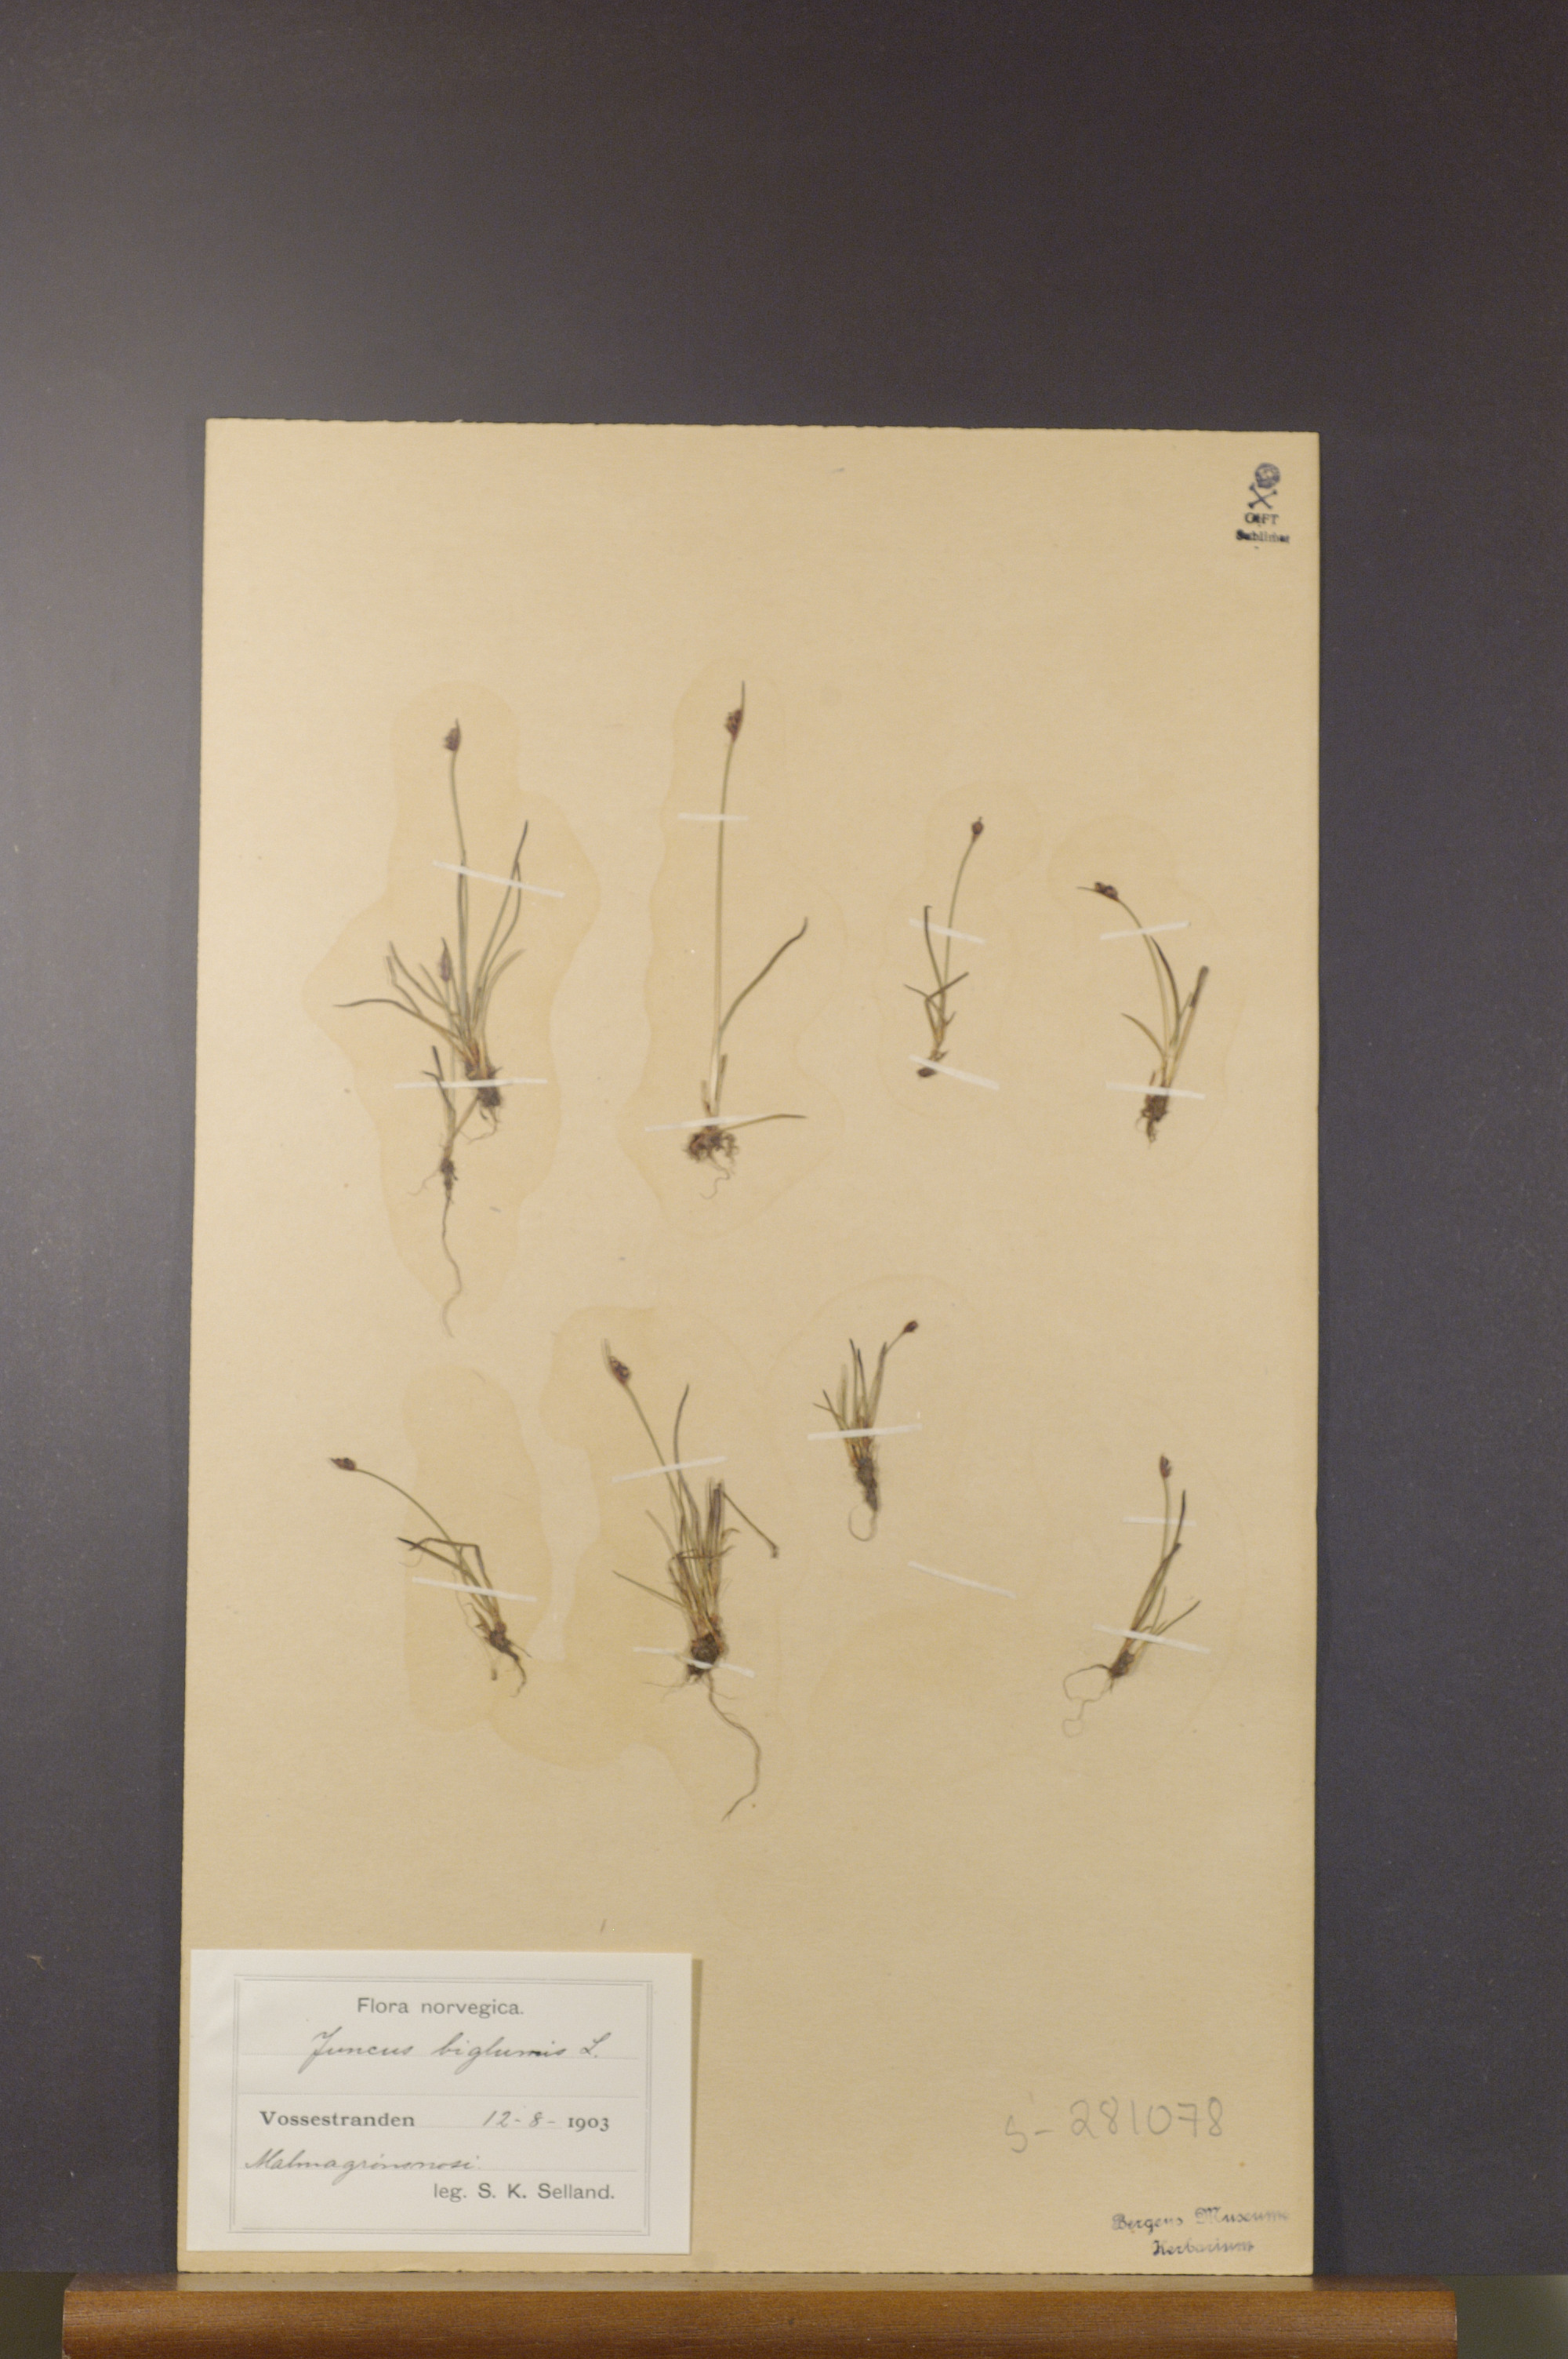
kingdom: Plantae
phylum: Tracheophyta
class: Liliopsida
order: Poales
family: Juncaceae
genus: Juncus
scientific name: Juncus biglumis
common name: Two-flowered rush
